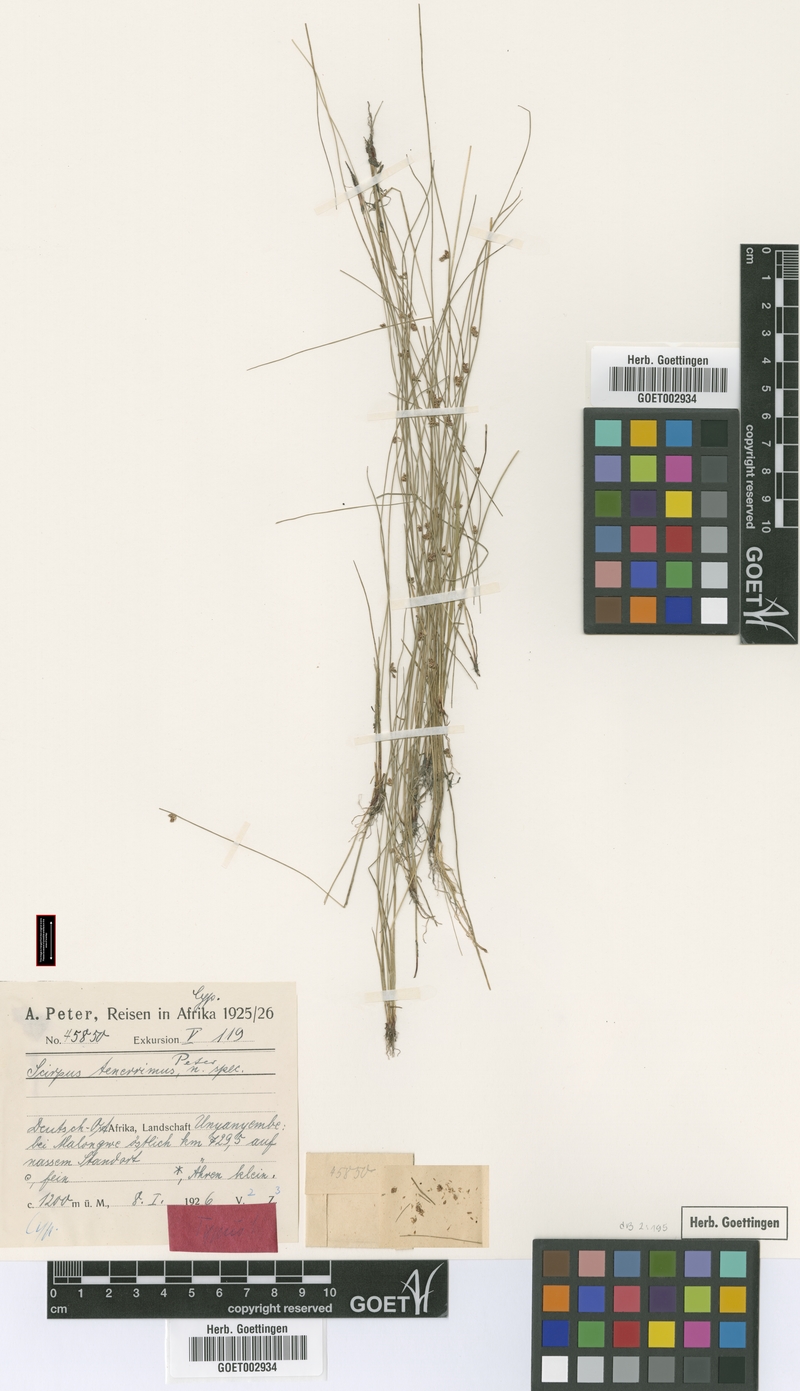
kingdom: Plantae
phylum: Tracheophyta
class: Liliopsida
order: Poales
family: Cyperaceae
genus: Schoenoplectiella
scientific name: Schoenoplectiella microglumis
